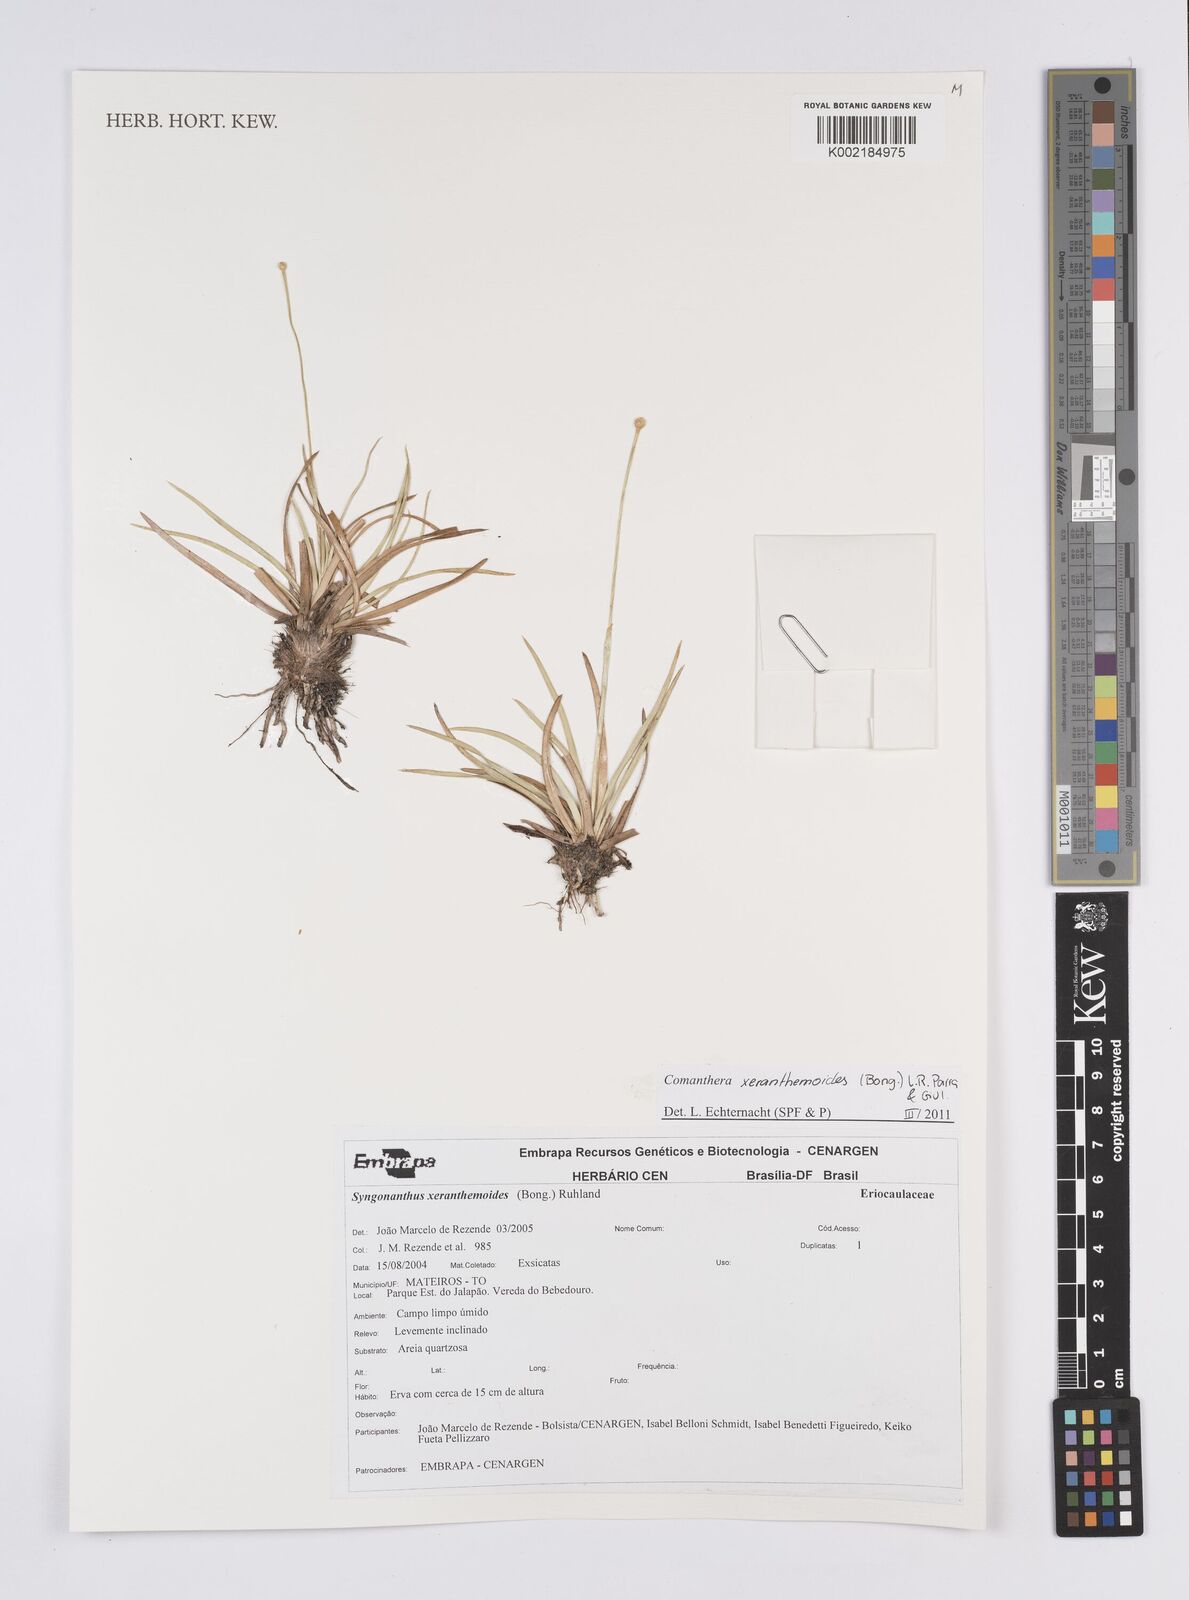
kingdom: Plantae
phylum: Tracheophyta
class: Liliopsida
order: Poales
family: Eriocaulaceae
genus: Comanthera
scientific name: Comanthera xeranthemoides
